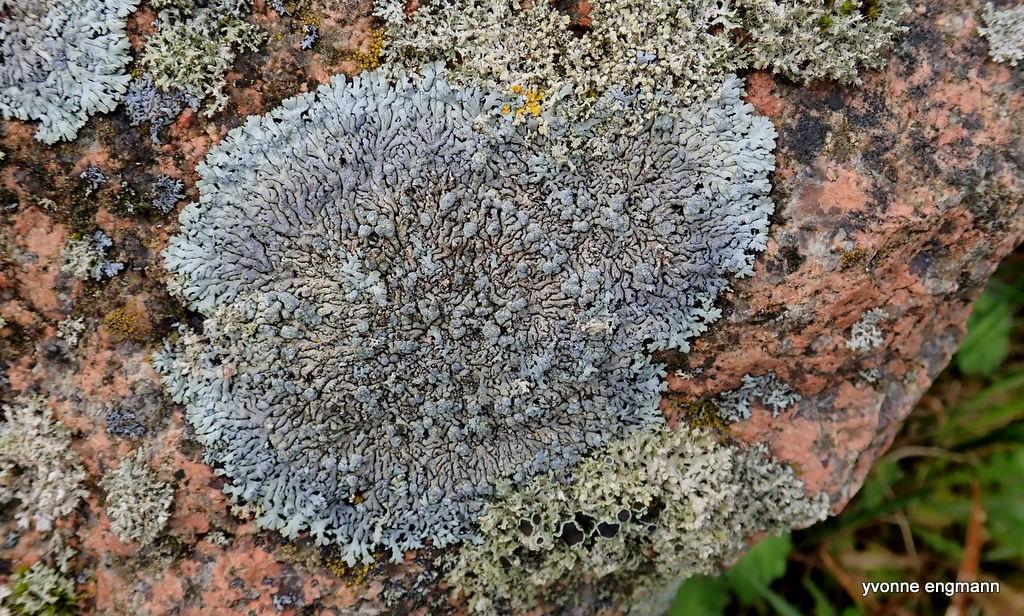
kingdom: Fungi
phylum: Ascomycota
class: Lecanoromycetes
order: Caliciales
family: Physciaceae
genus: Physcia
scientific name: Physcia caesia
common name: blågrå rosetlav
